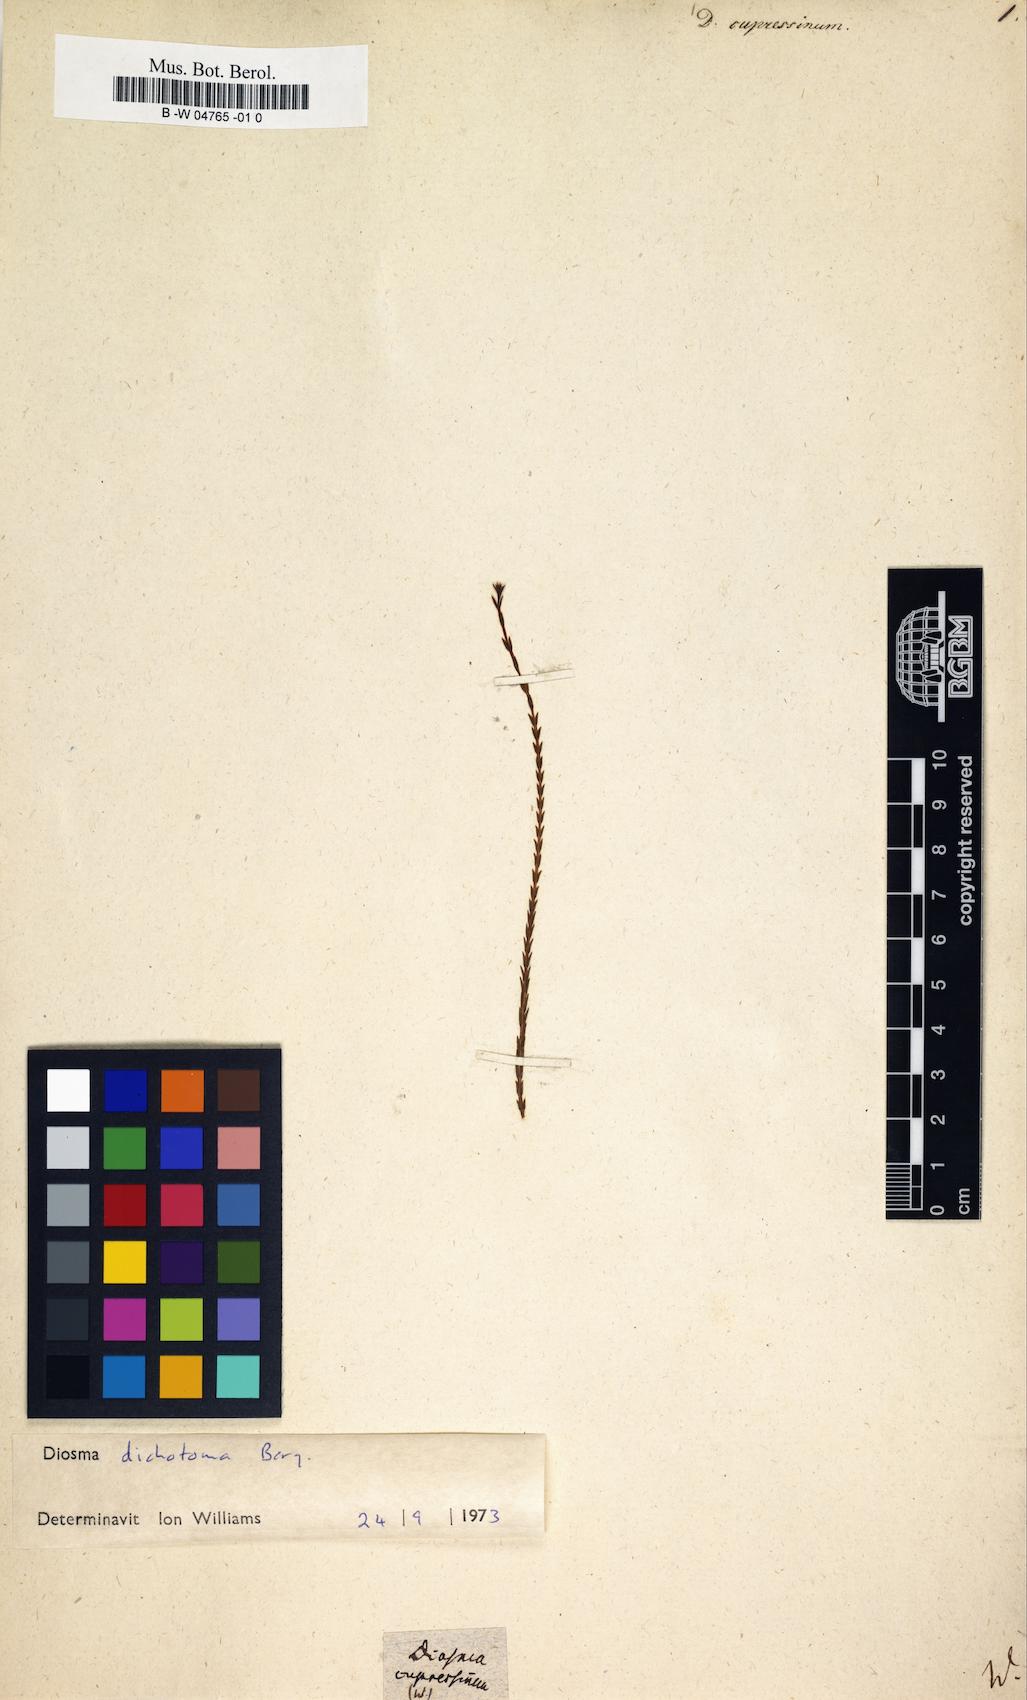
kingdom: Plantae
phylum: Tracheophyta
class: Magnoliopsida
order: Sapindales
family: Rutaceae
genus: Diosma
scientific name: Diosma dichotoma
